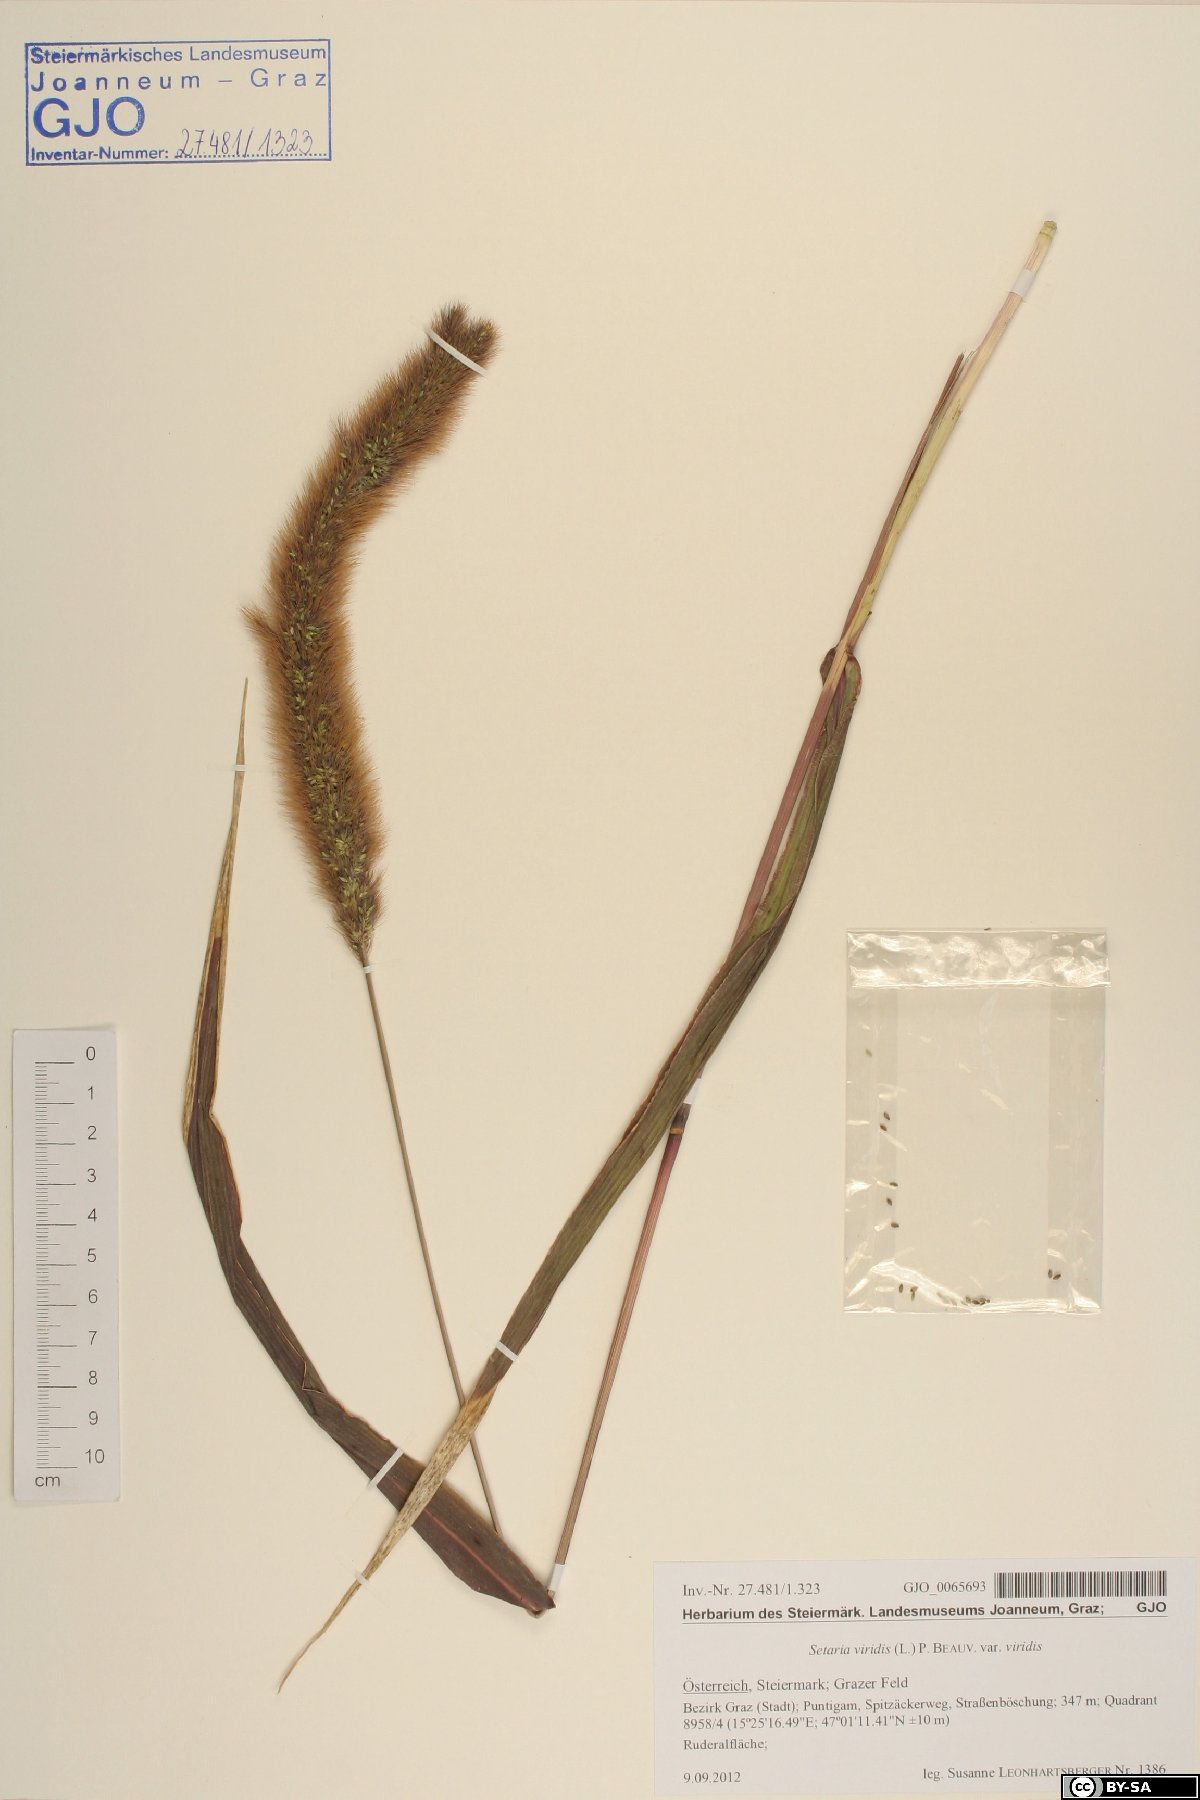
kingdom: Plantae
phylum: Tracheophyta
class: Liliopsida
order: Poales
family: Poaceae
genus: Setaria
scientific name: Setaria viridis
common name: Green bristlegrass
